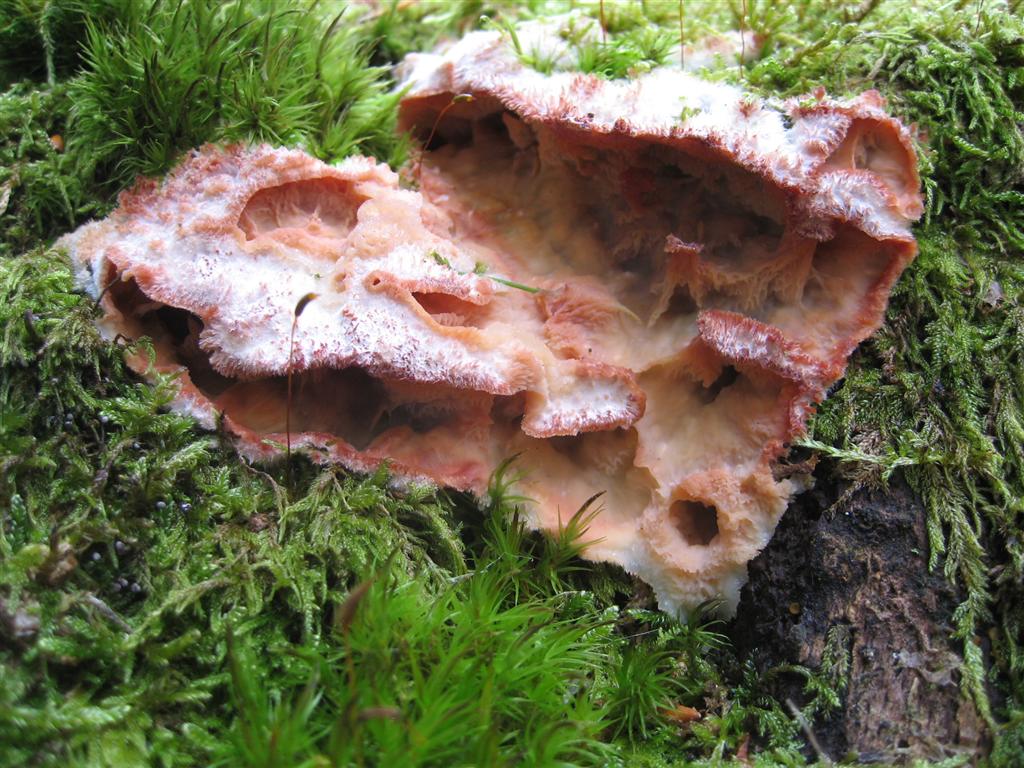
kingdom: Fungi
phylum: Basidiomycota
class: Agaricomycetes
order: Polyporales
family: Meruliaceae
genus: Phlebia
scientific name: Phlebia tremellosa
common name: bævrende åresvamp
